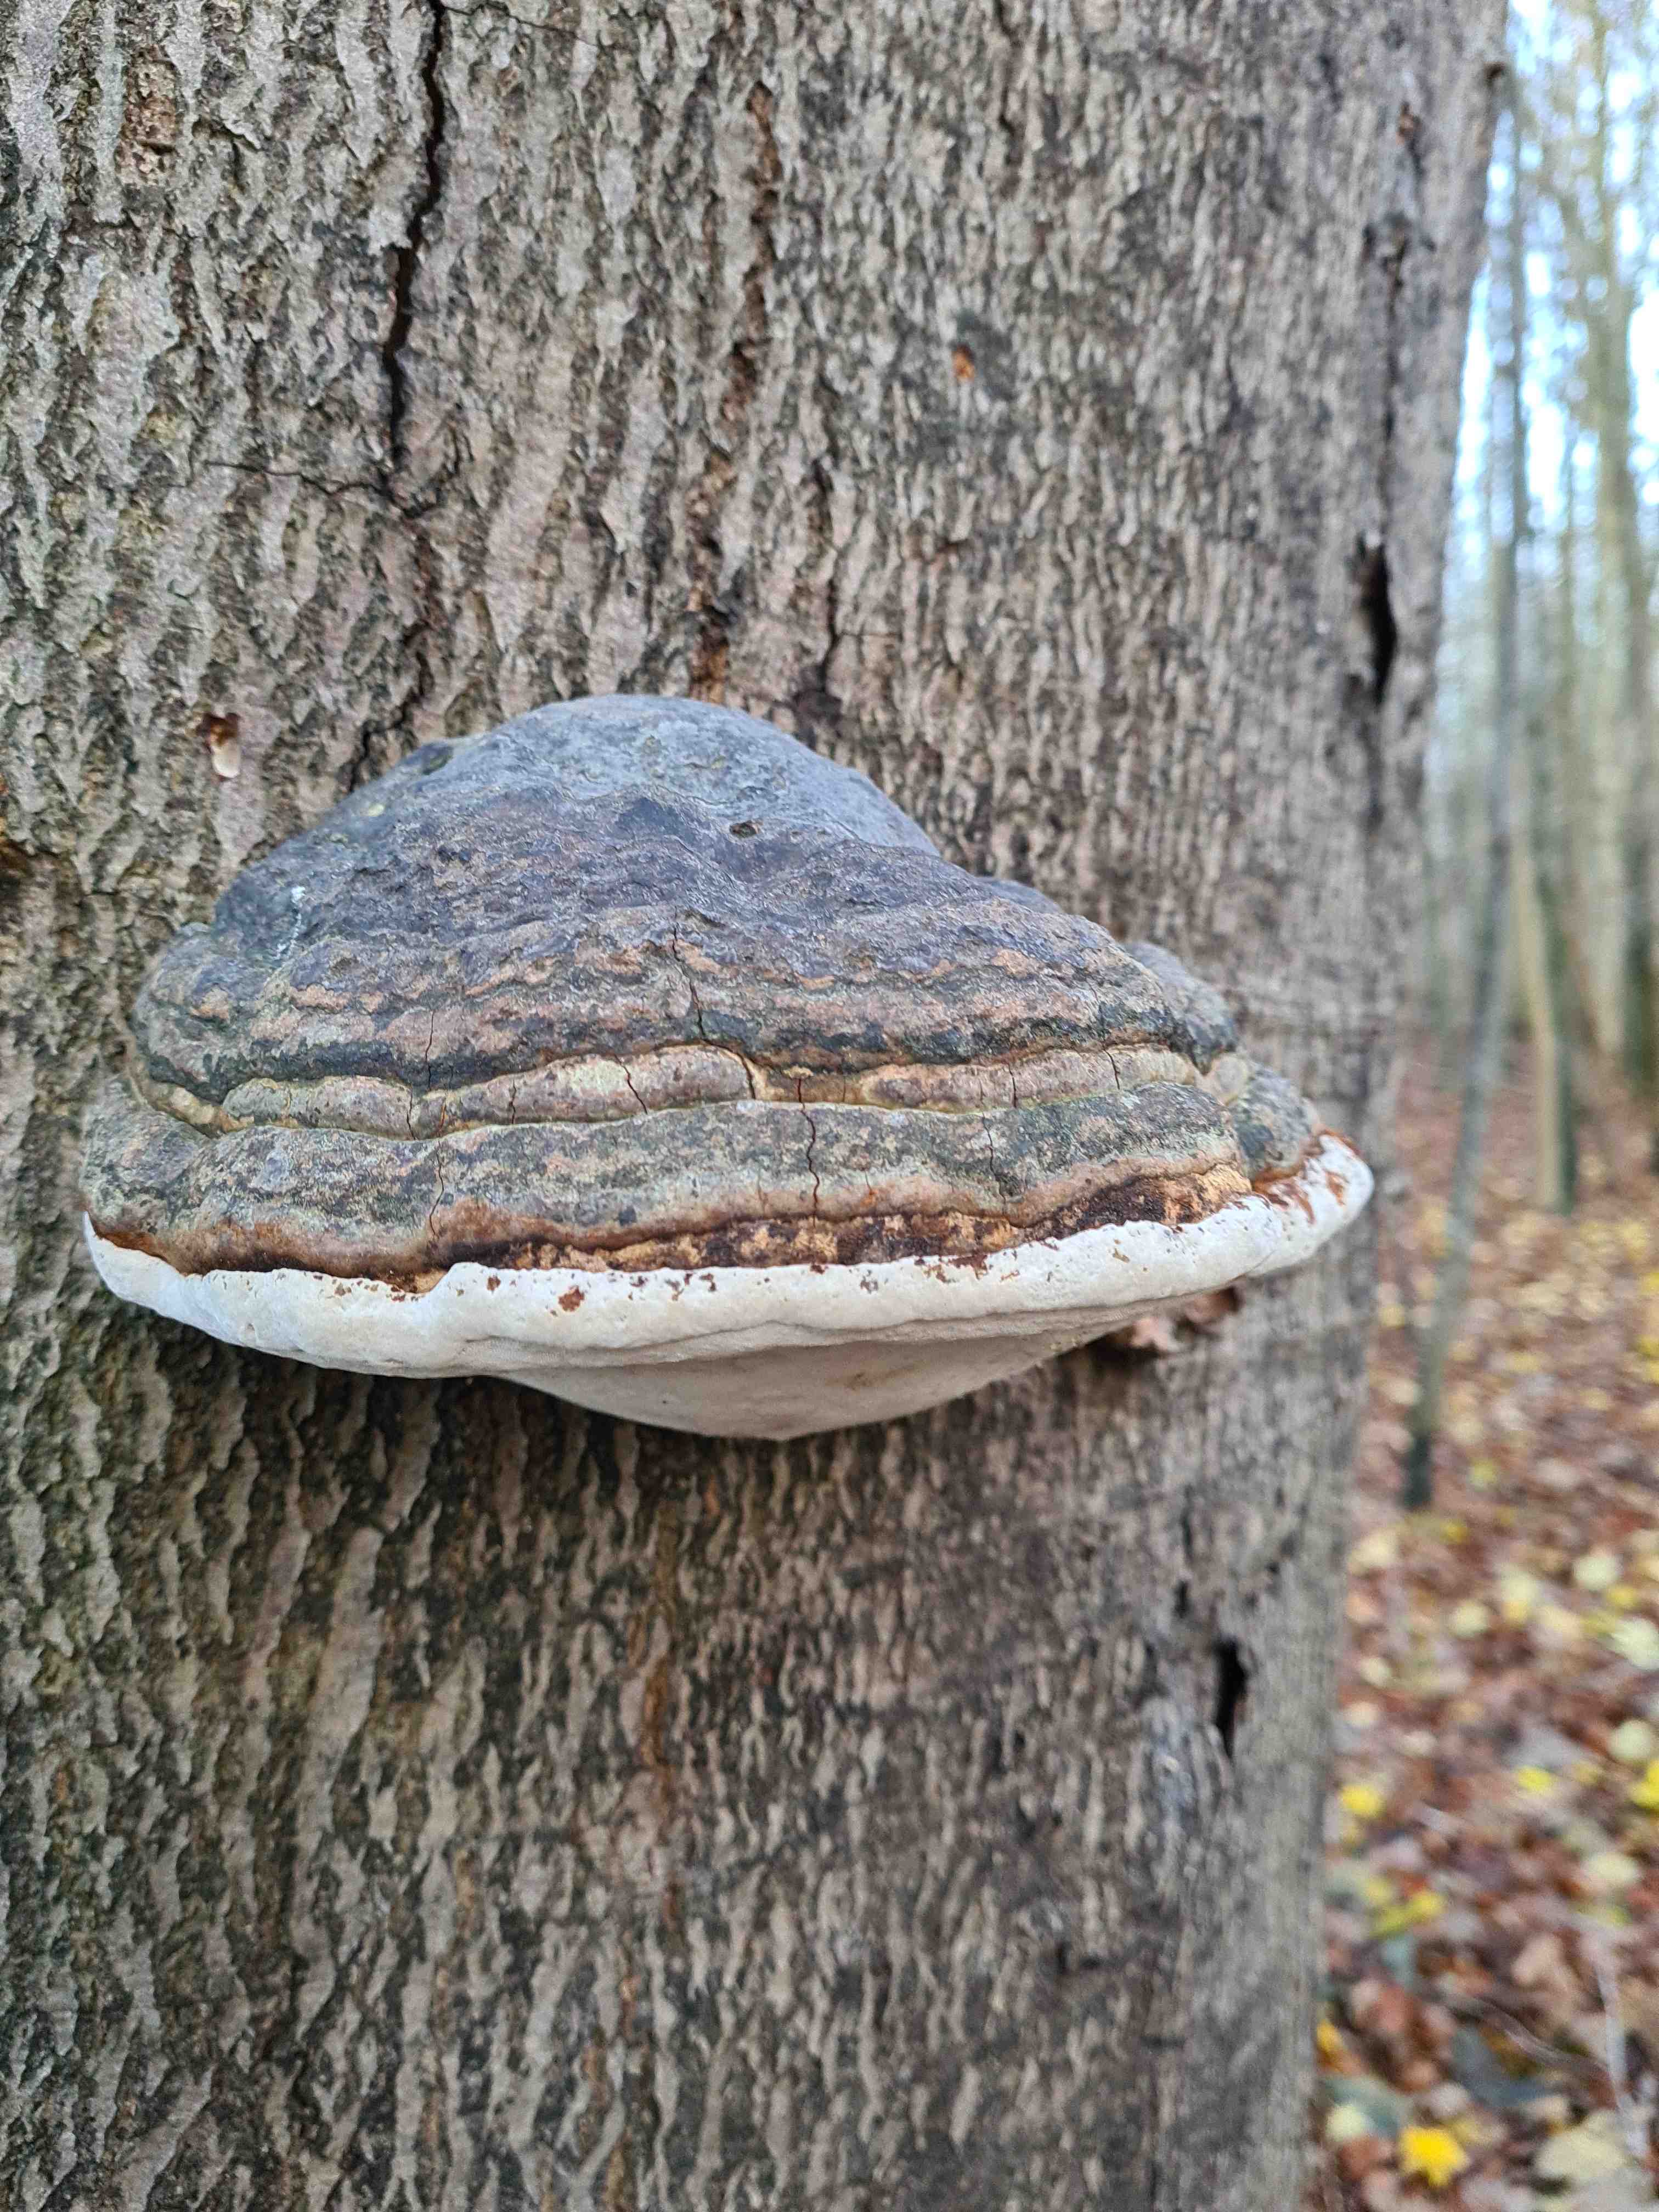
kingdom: Fungi
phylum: Basidiomycota
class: Agaricomycetes
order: Polyporales
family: Polyporaceae
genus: Fomes
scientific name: Fomes fomentarius
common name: tøndersvamp
